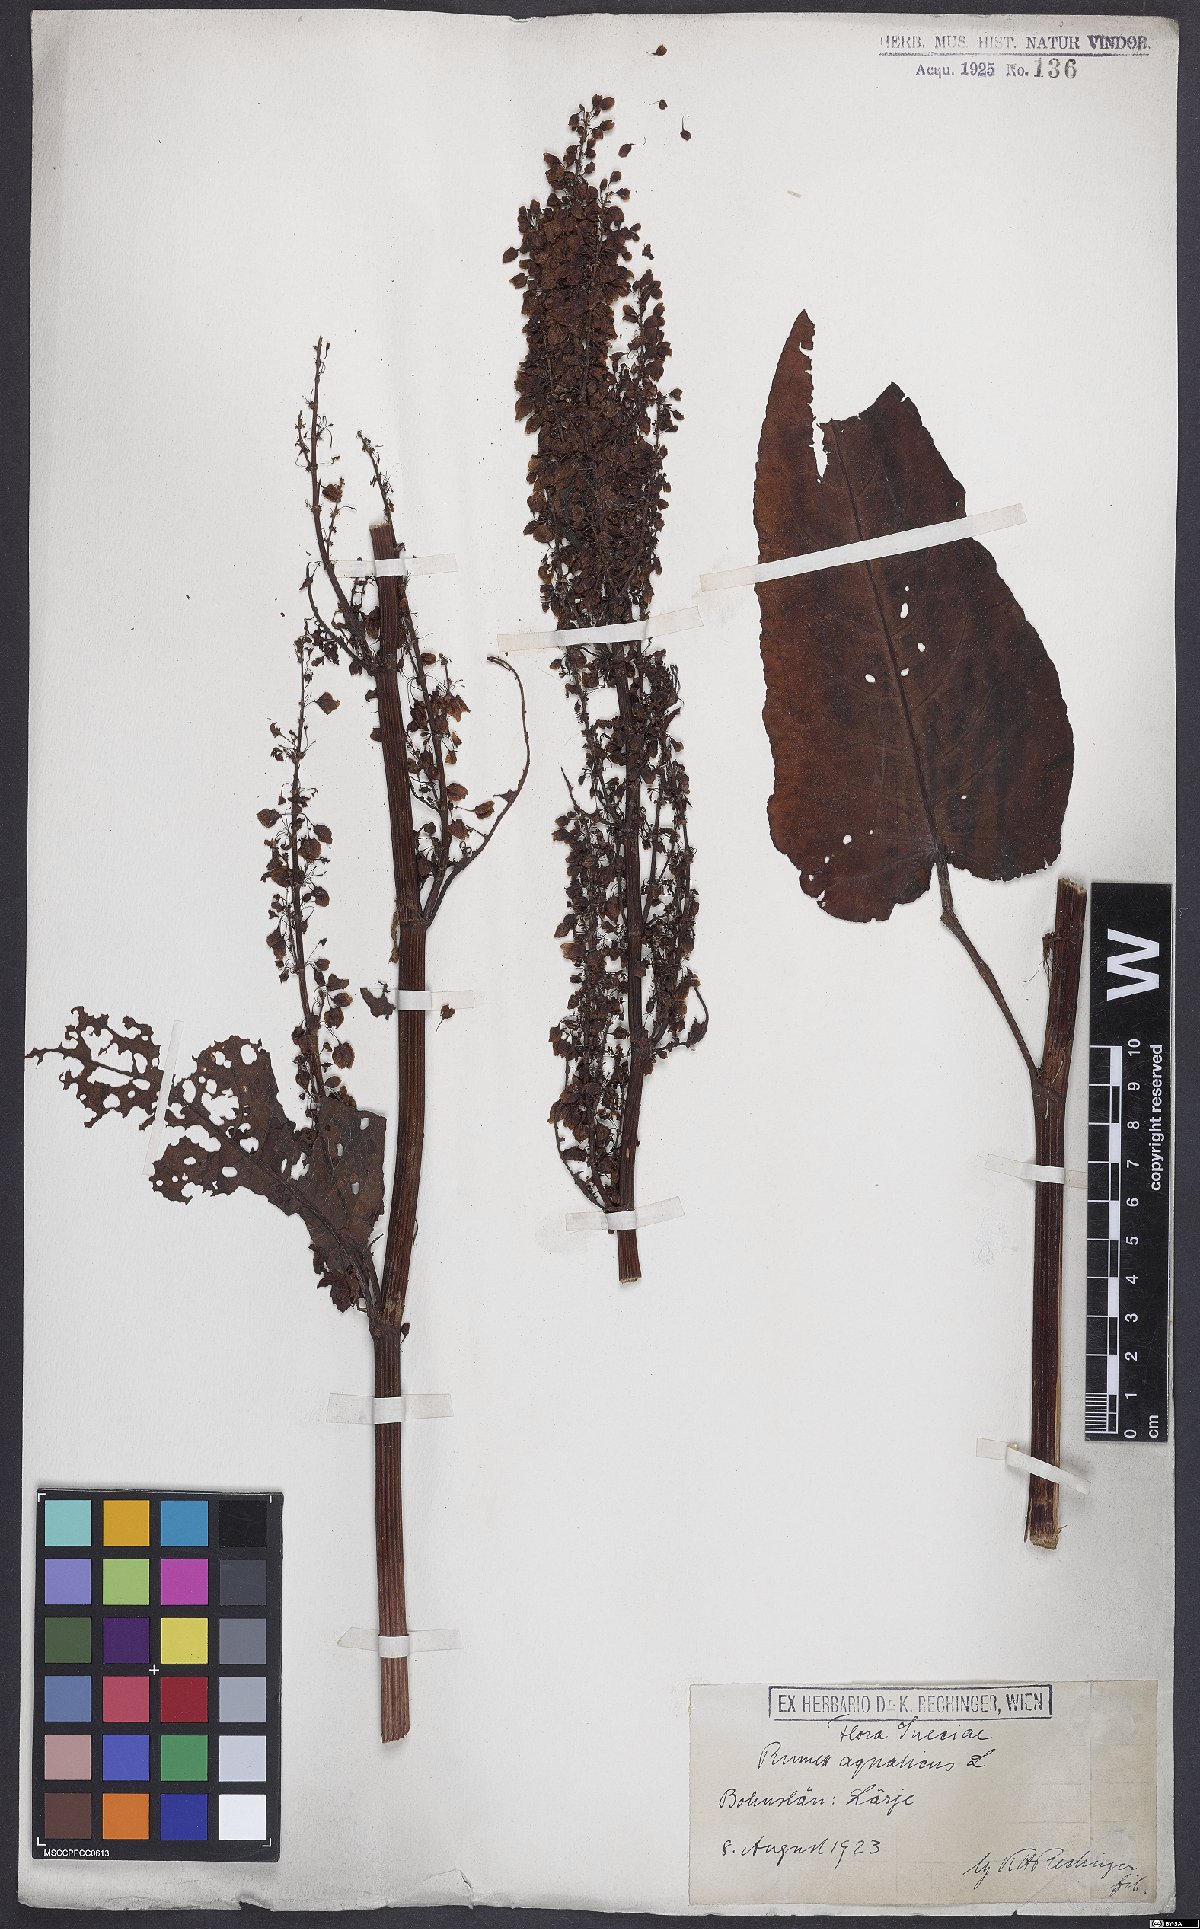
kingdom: Plantae
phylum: Tracheophyta
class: Magnoliopsida
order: Caryophyllales
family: Polygonaceae
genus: Rumex
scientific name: Rumex aquaticus
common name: Scottish dock
